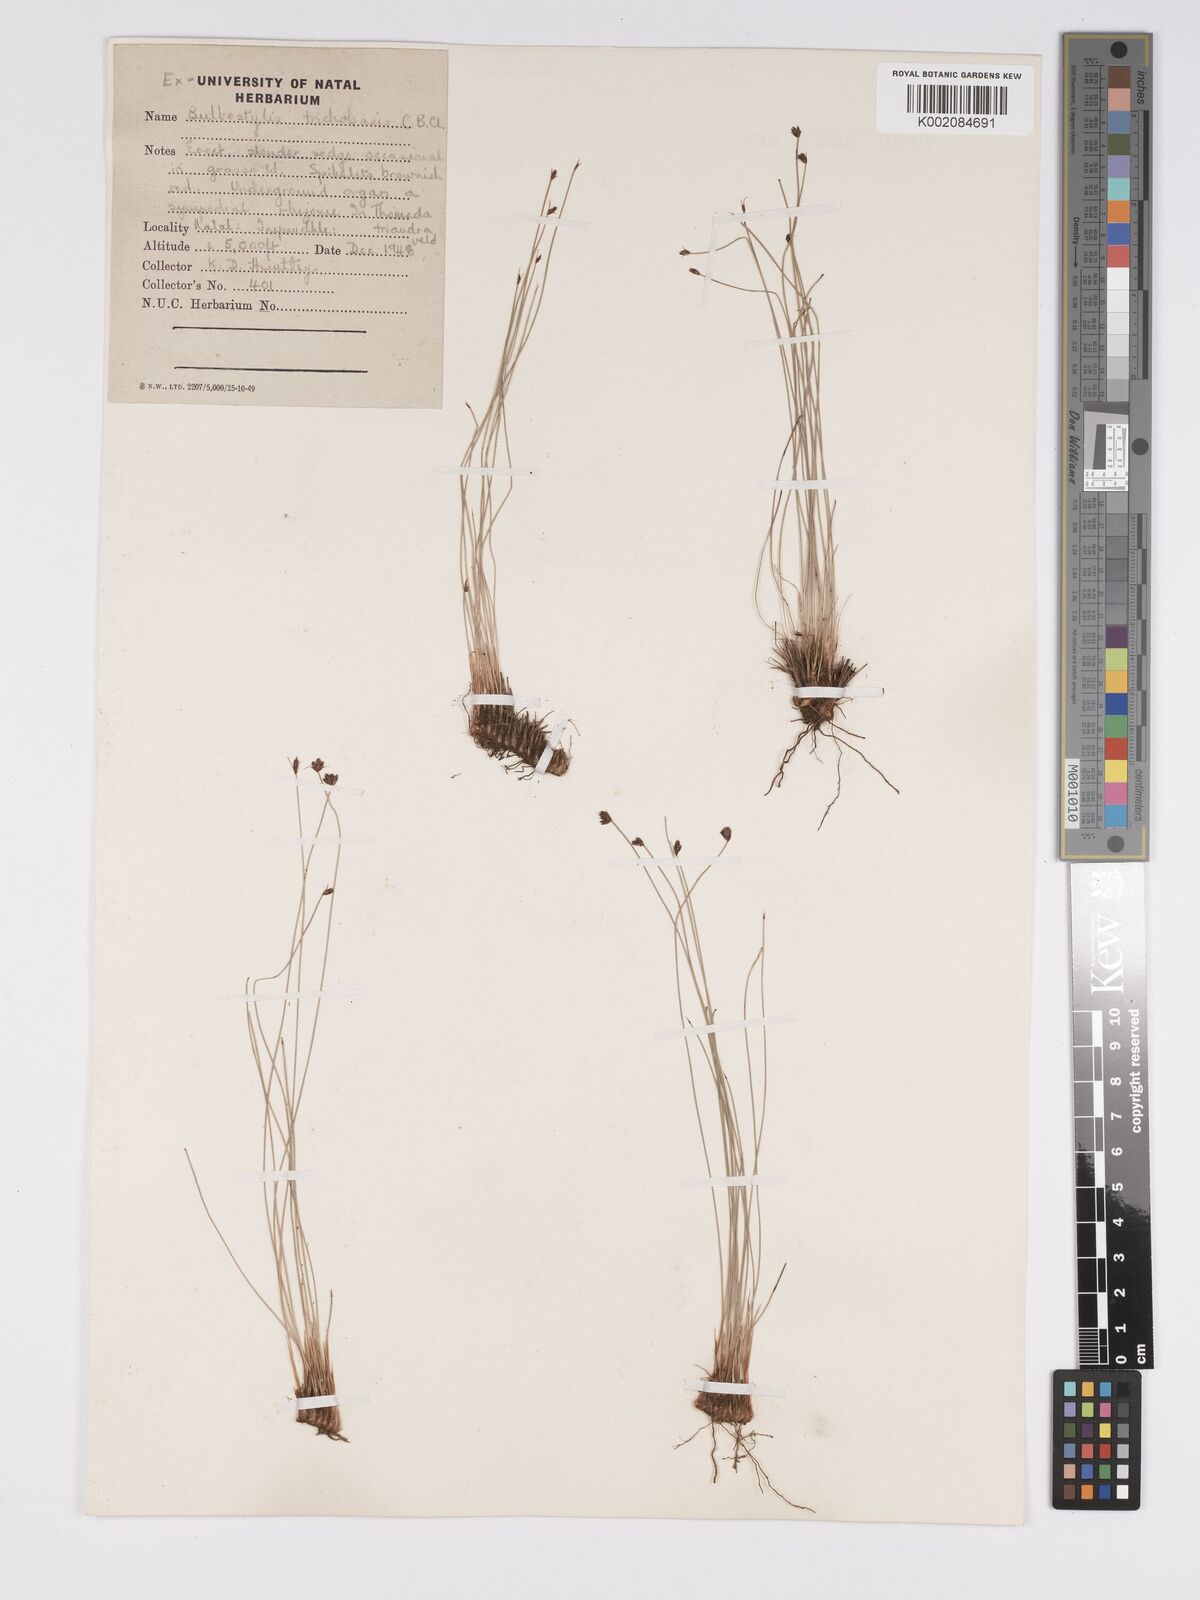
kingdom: Plantae
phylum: Tracheophyta
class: Liliopsida
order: Poales
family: Cyperaceae
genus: Bulbostylis
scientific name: Bulbostylis trichobasis
